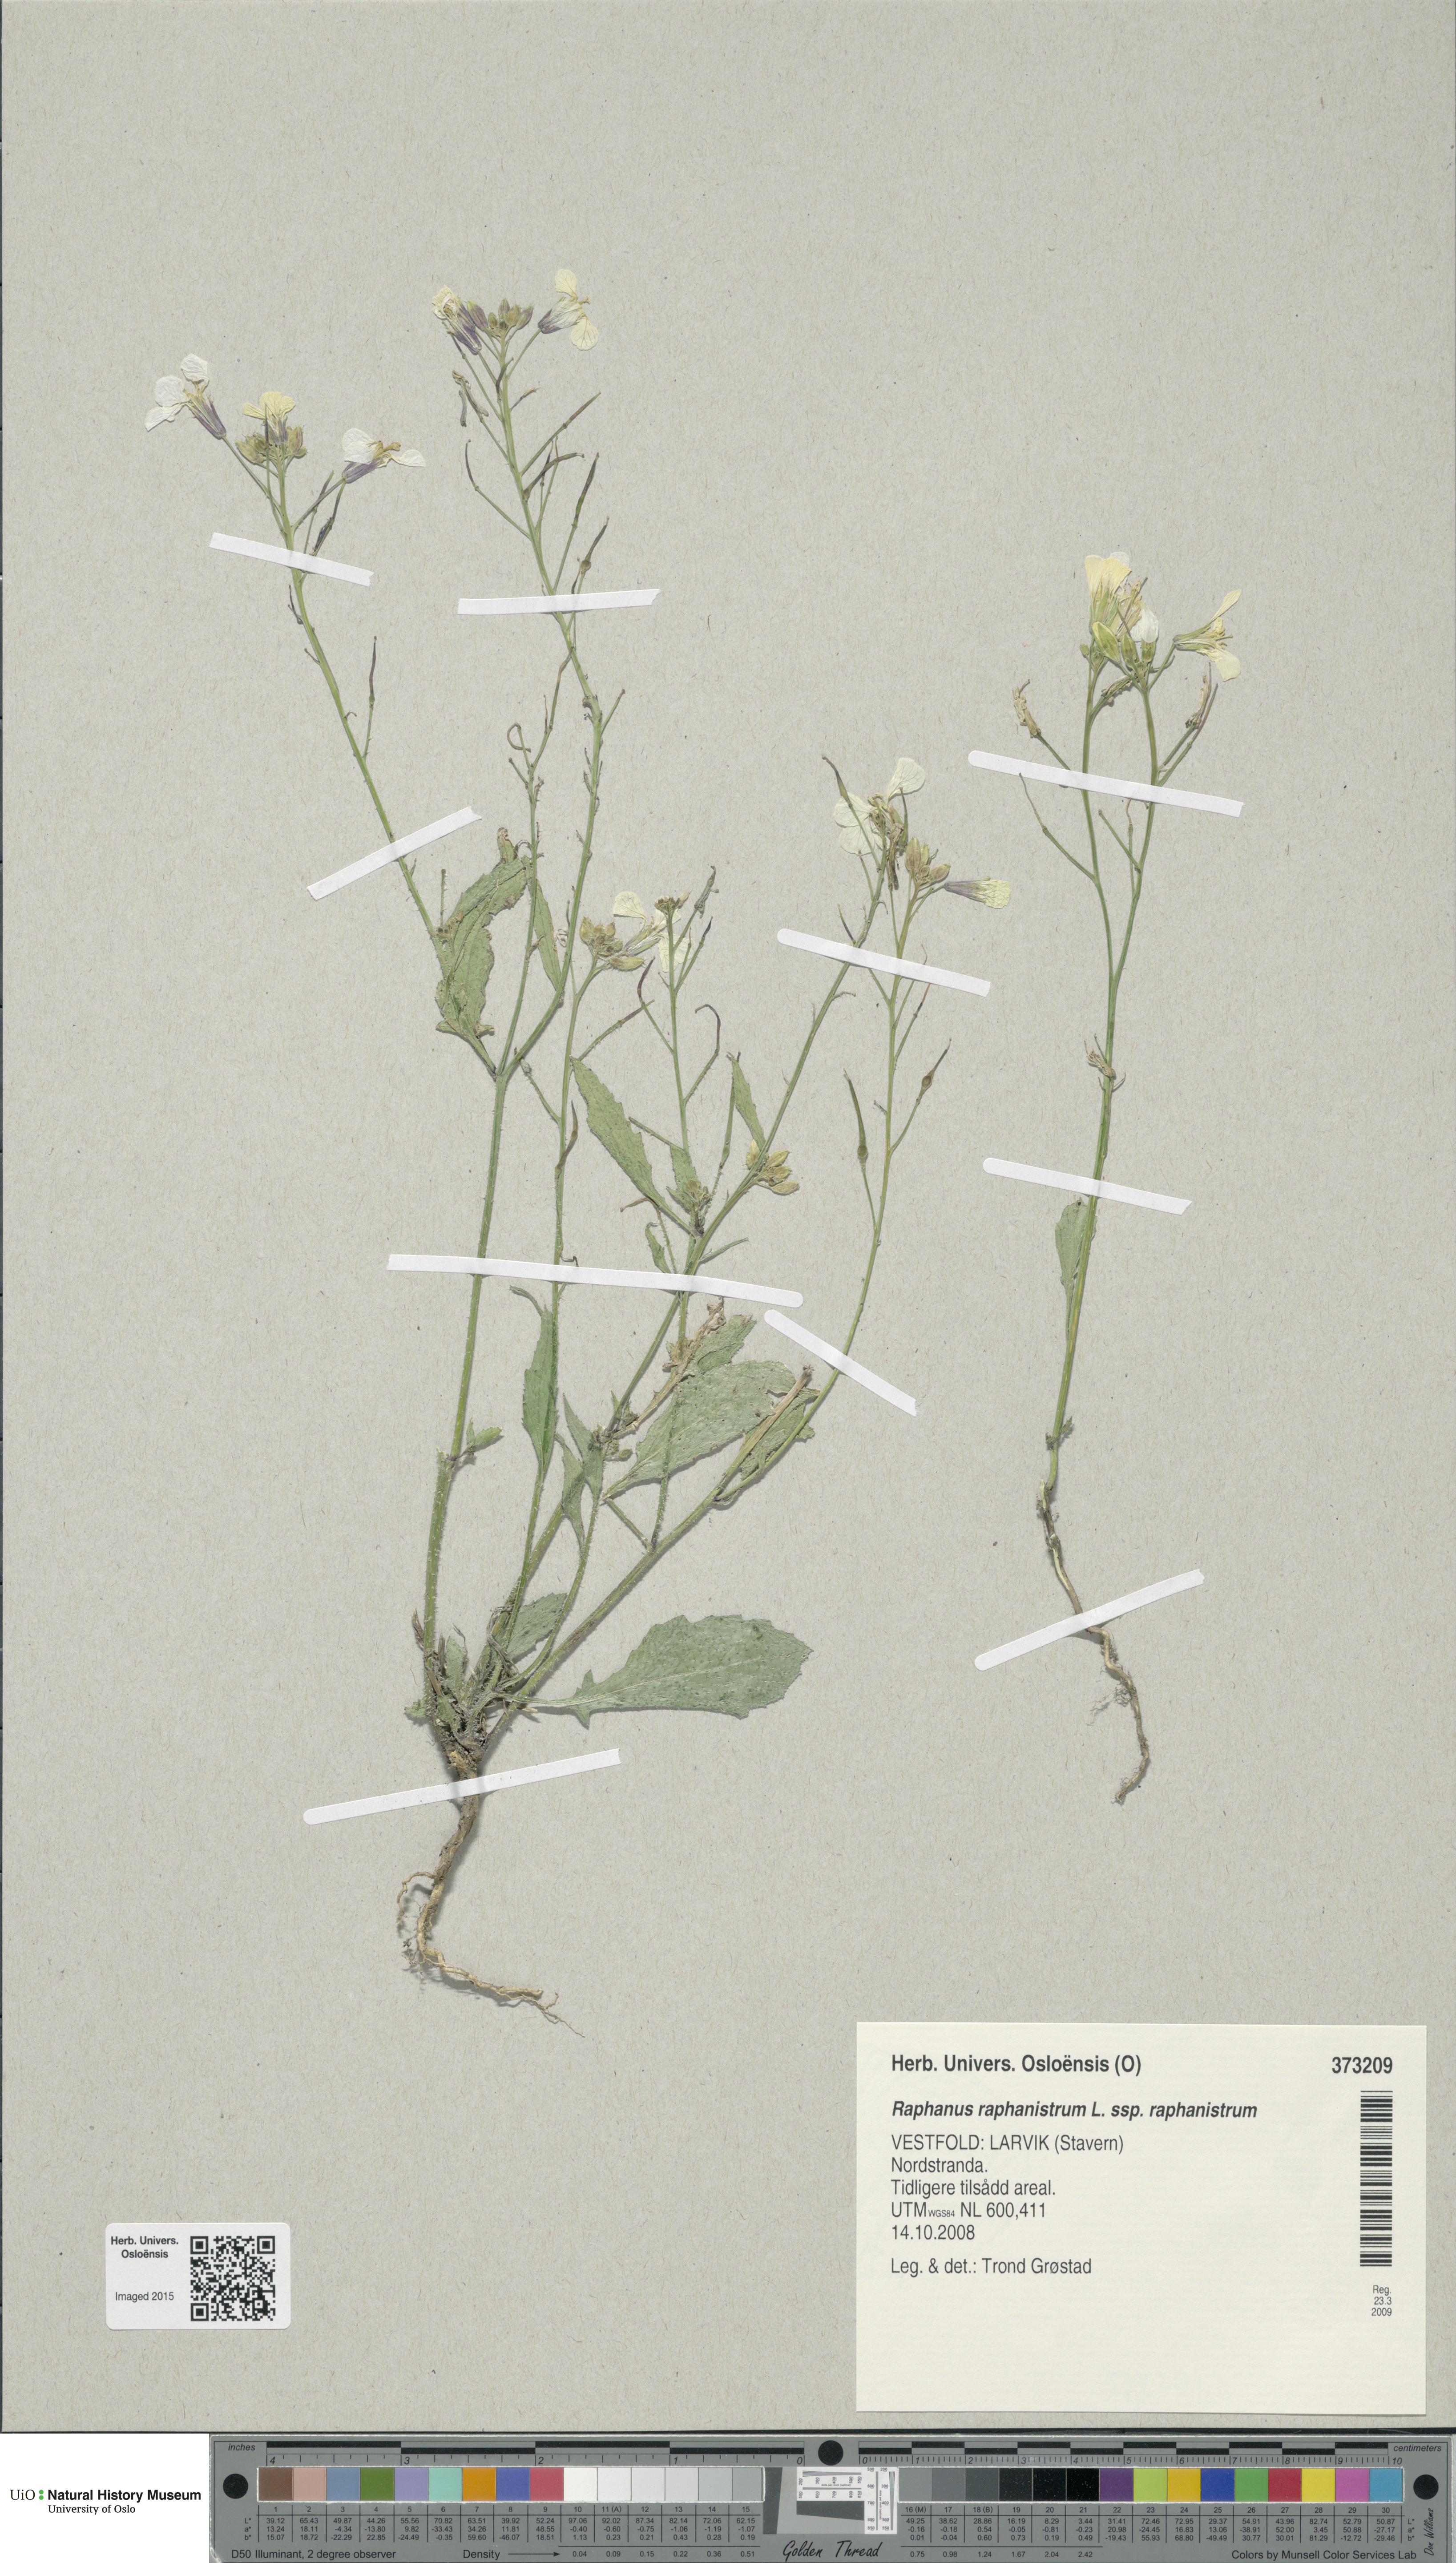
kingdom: Plantae
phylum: Tracheophyta
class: Magnoliopsida
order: Brassicales
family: Brassicaceae
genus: Raphanus
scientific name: Raphanus raphanistrum
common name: Wild radish
